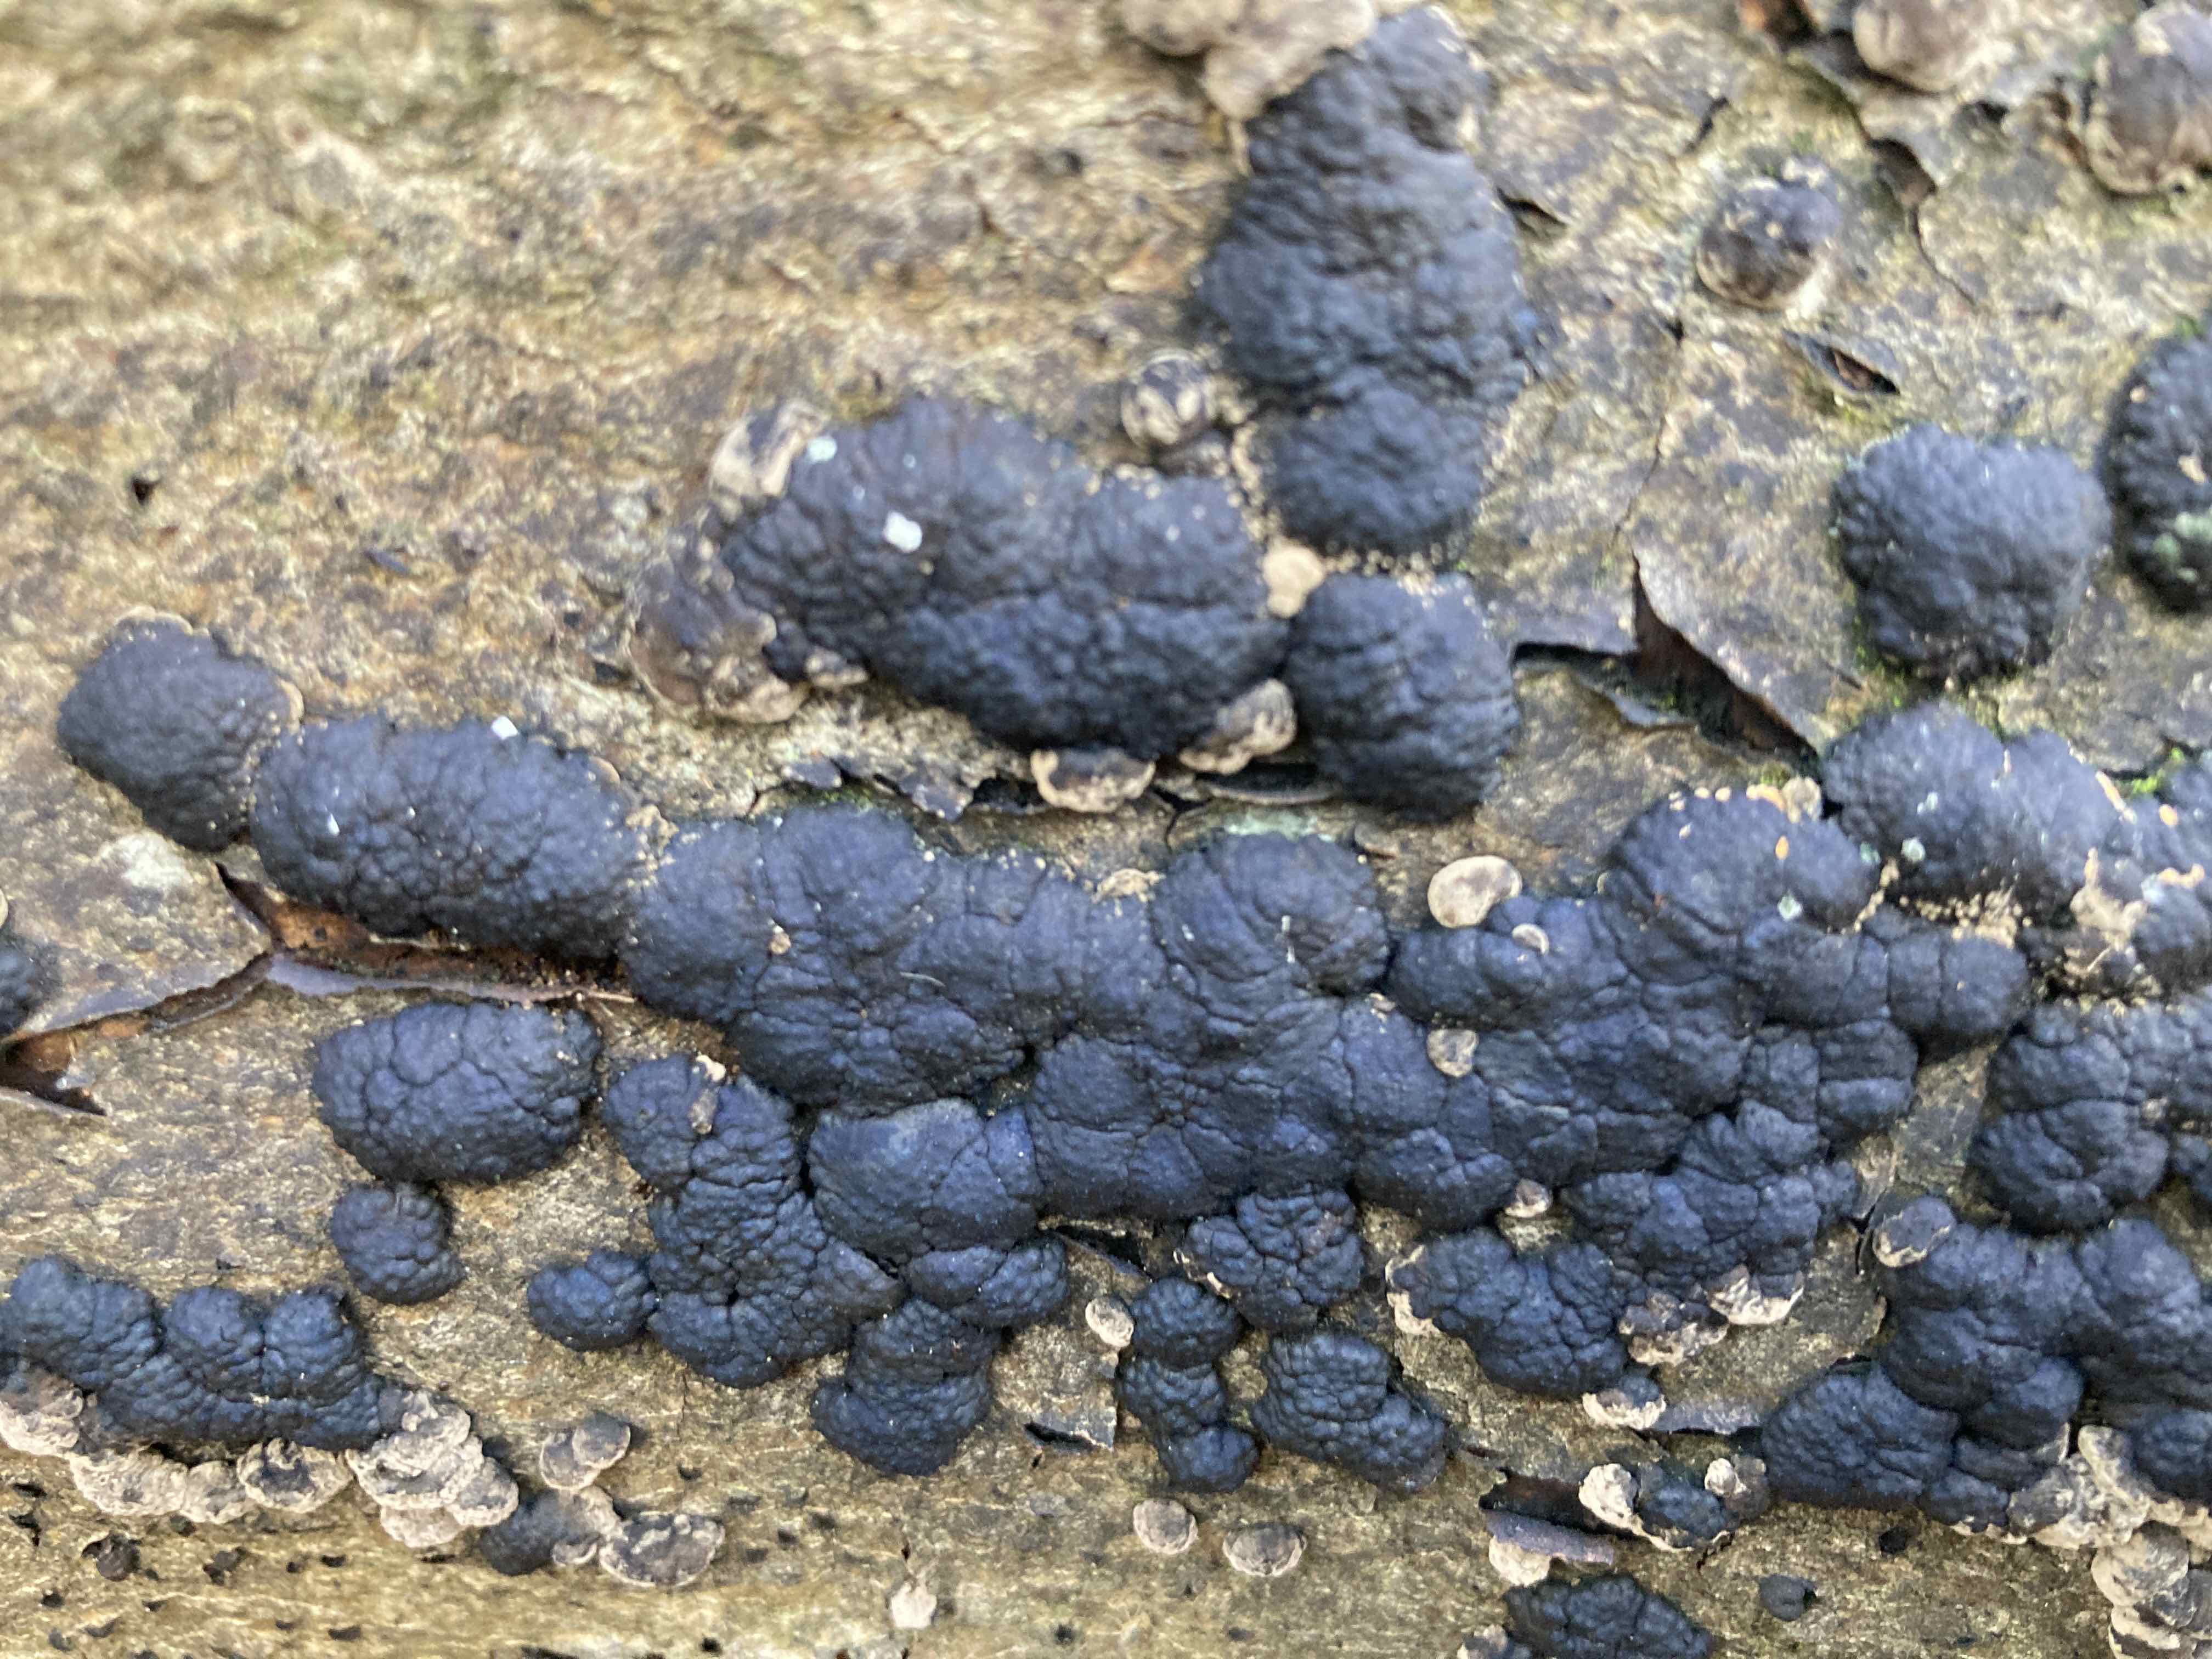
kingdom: Fungi
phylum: Ascomycota
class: Sordariomycetes
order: Xylariales
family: Hypoxylaceae
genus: Jackrogersella
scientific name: Jackrogersella cohaerens
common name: sammenflydende kulbær
